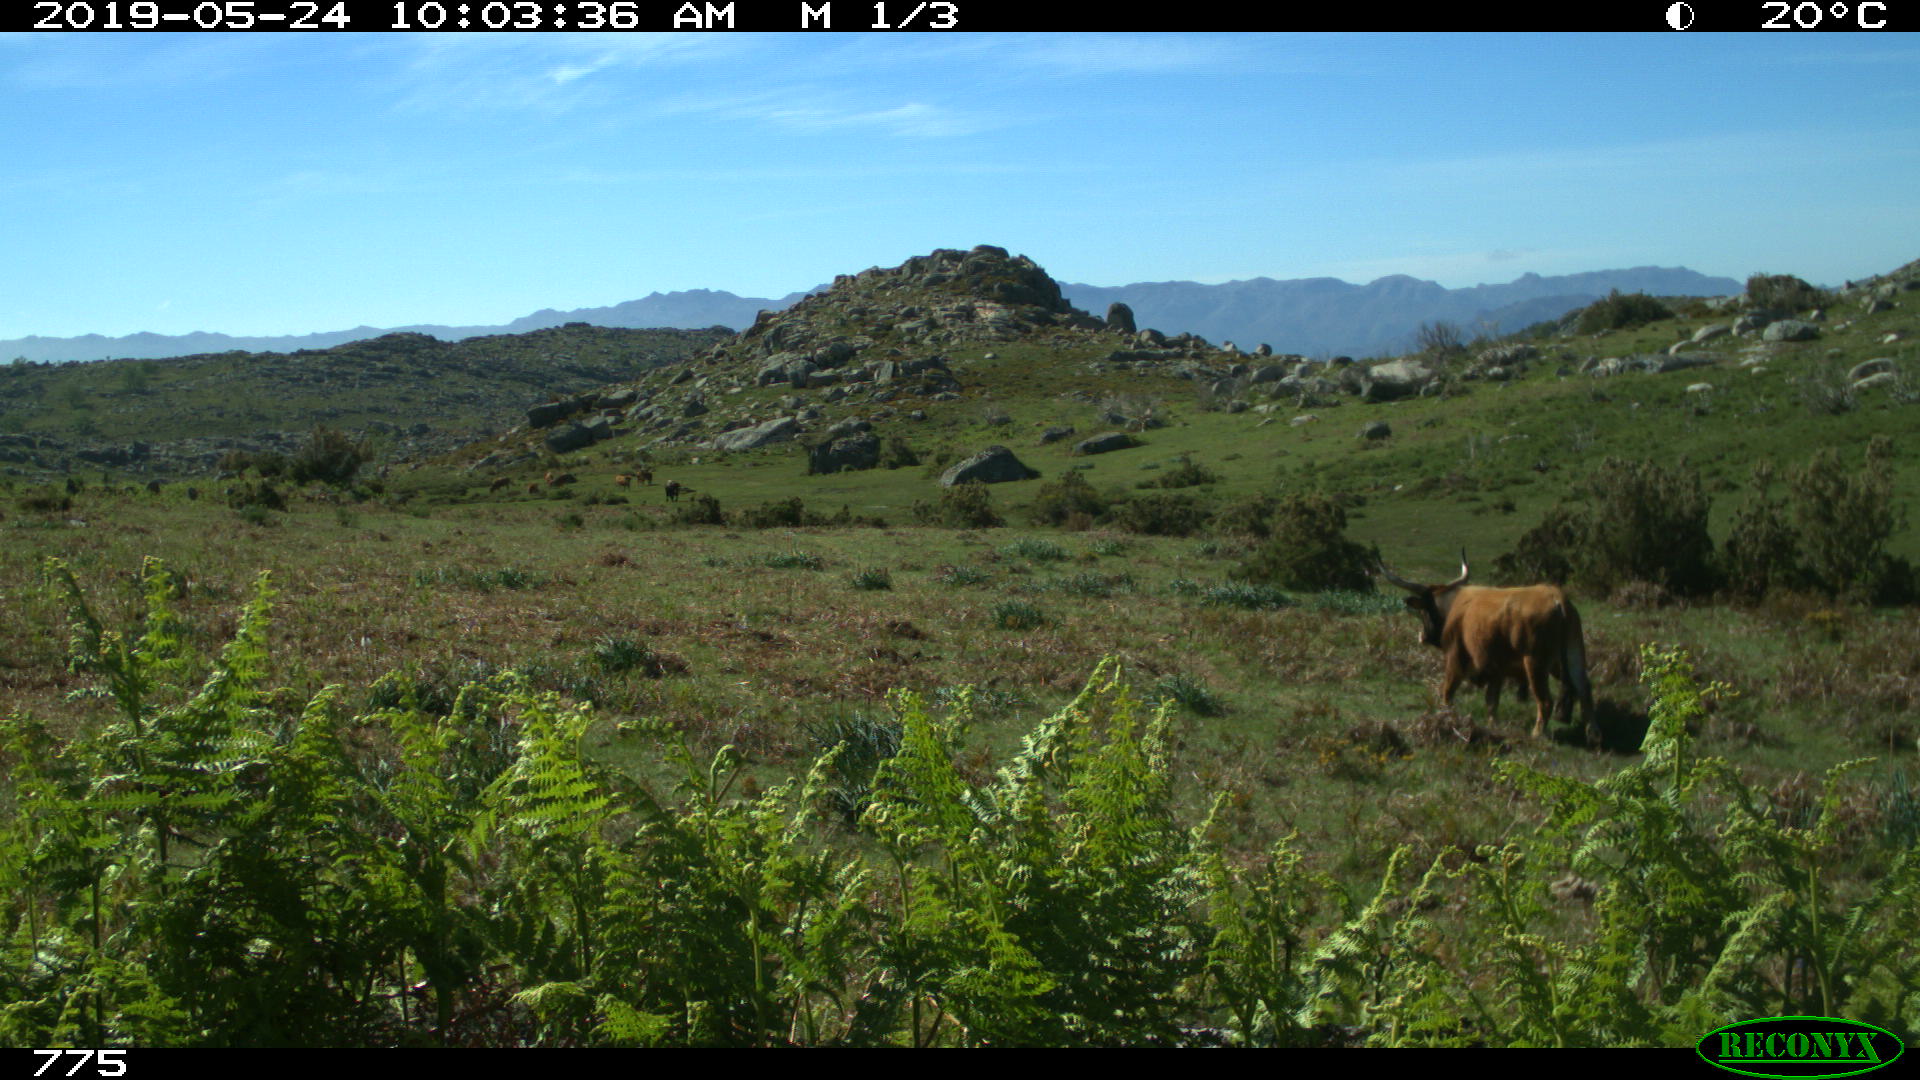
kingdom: Animalia
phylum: Chordata
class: Mammalia
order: Artiodactyla
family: Bovidae
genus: Bos
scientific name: Bos taurus
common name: Domesticated cattle
